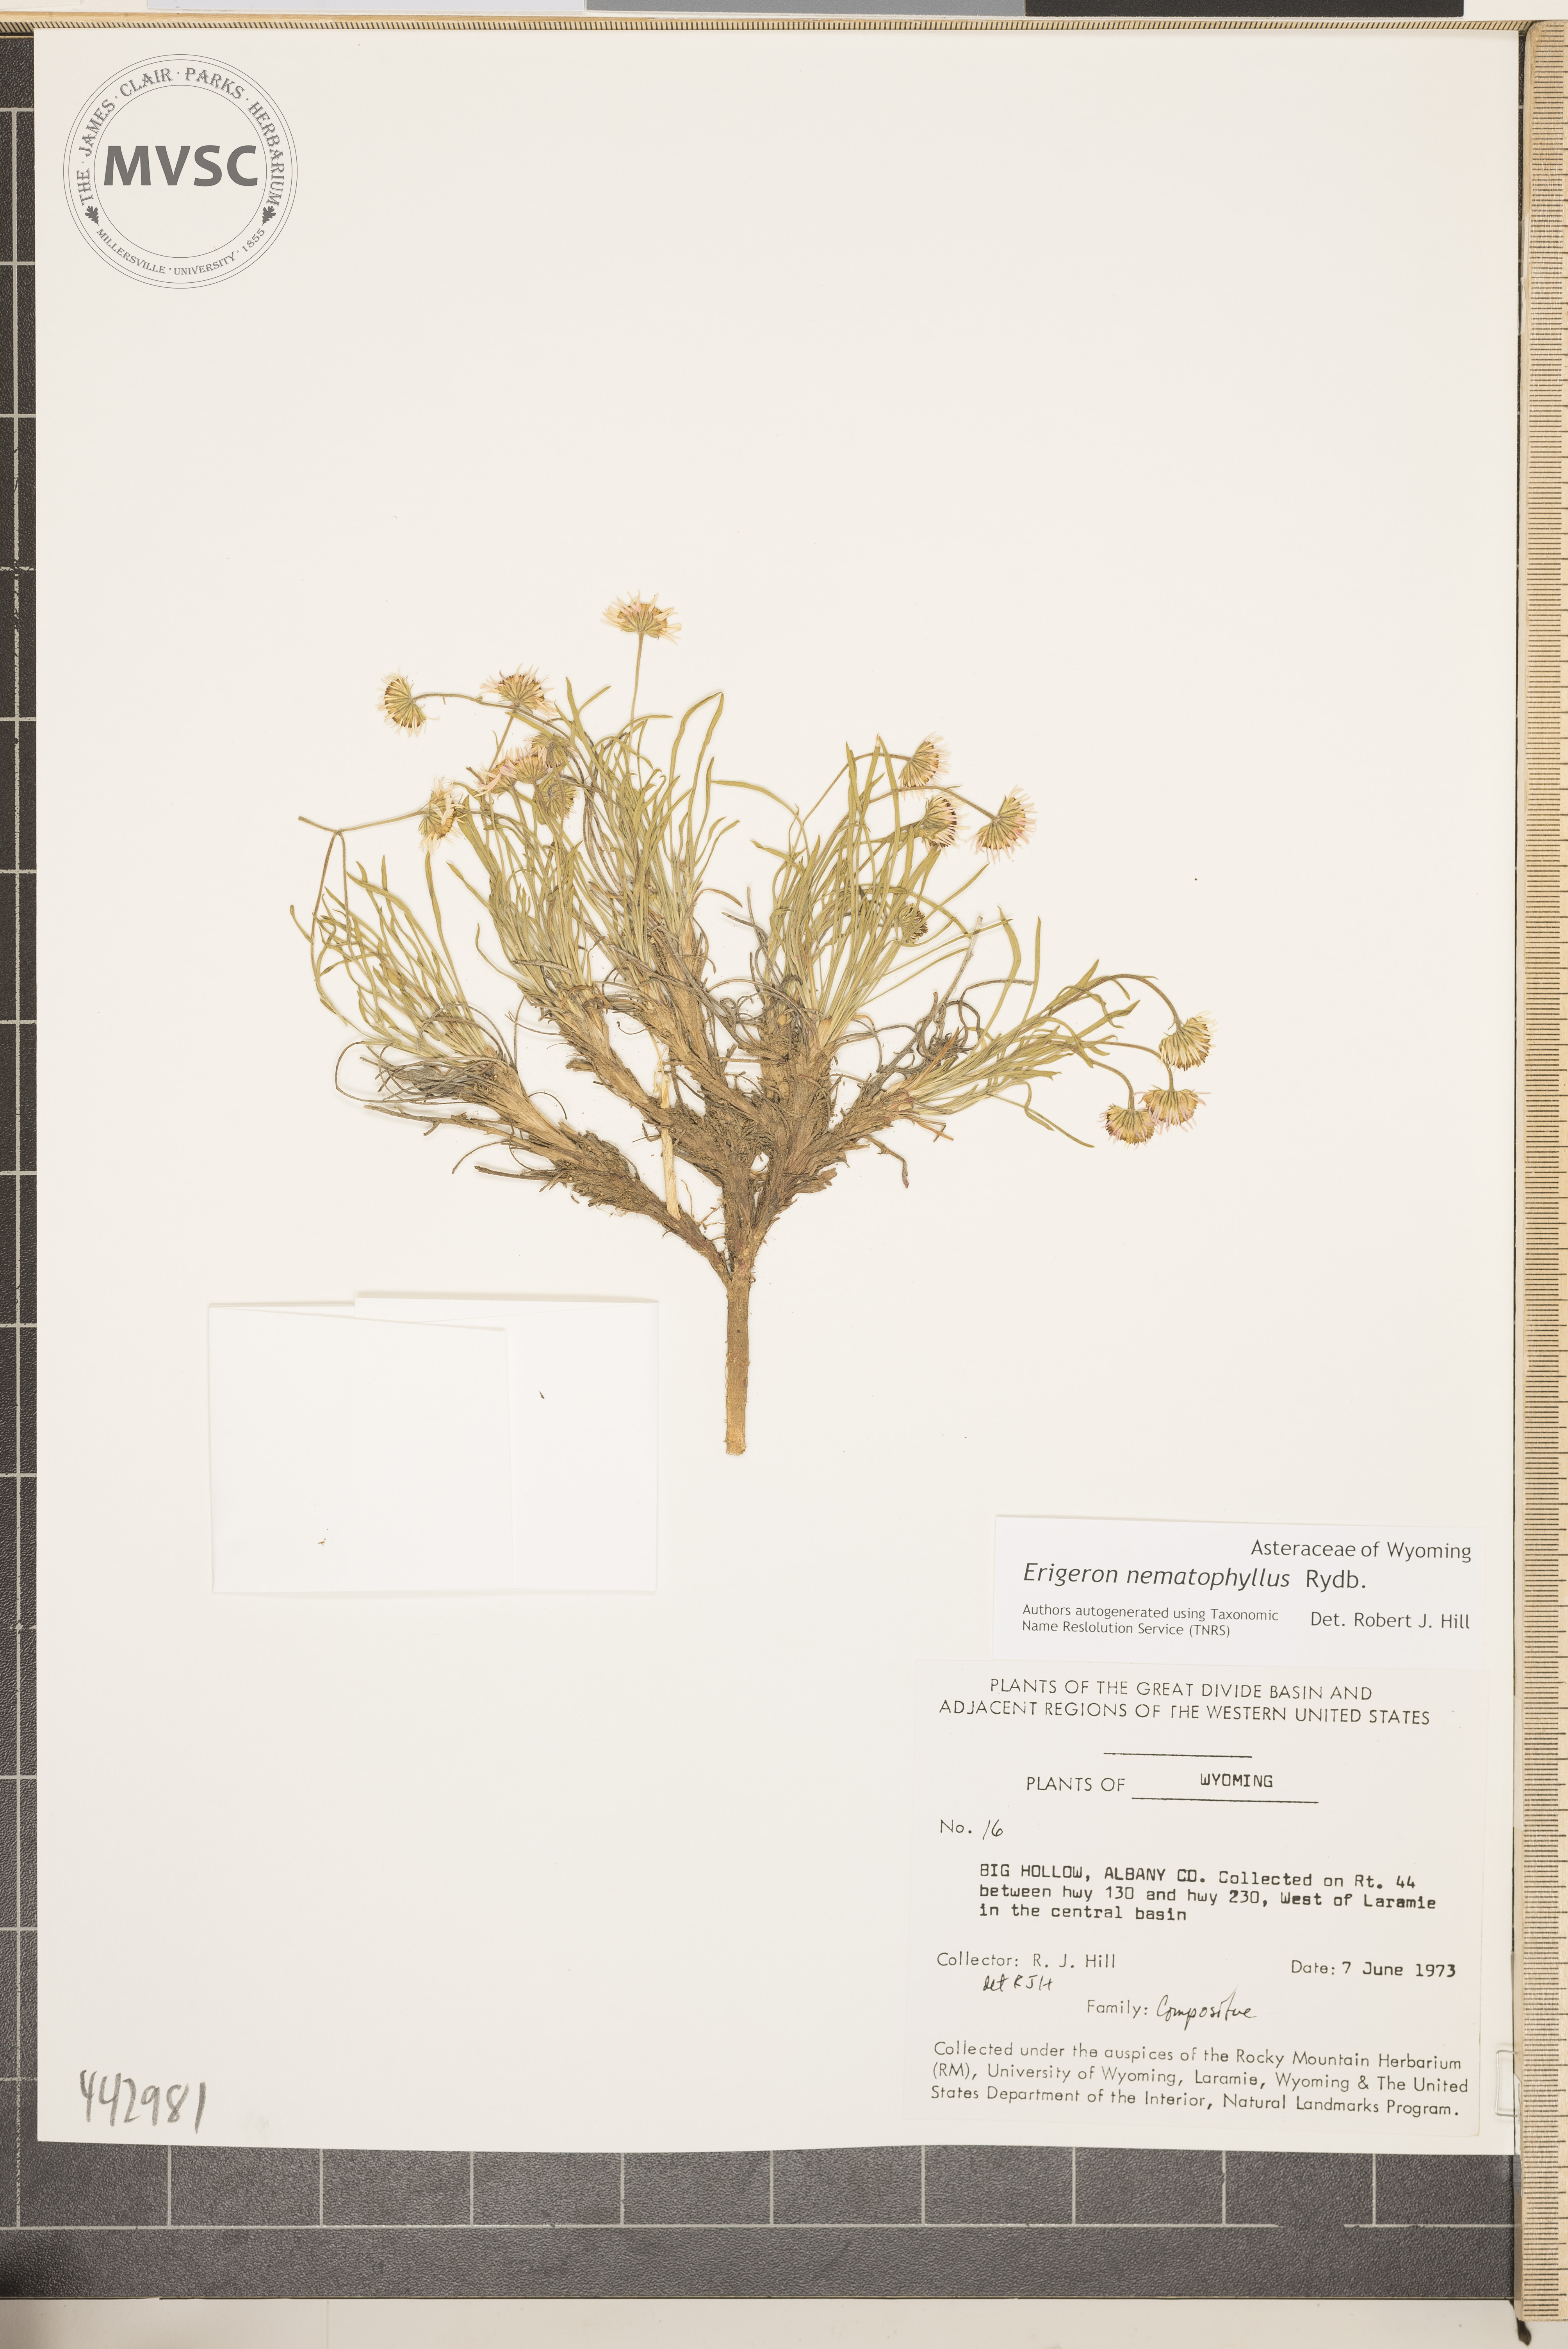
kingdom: Plantae
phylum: Tracheophyta
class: Magnoliopsida
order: Asterales
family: Asteraceae
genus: Erigeron
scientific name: Erigeron nematophyllus
